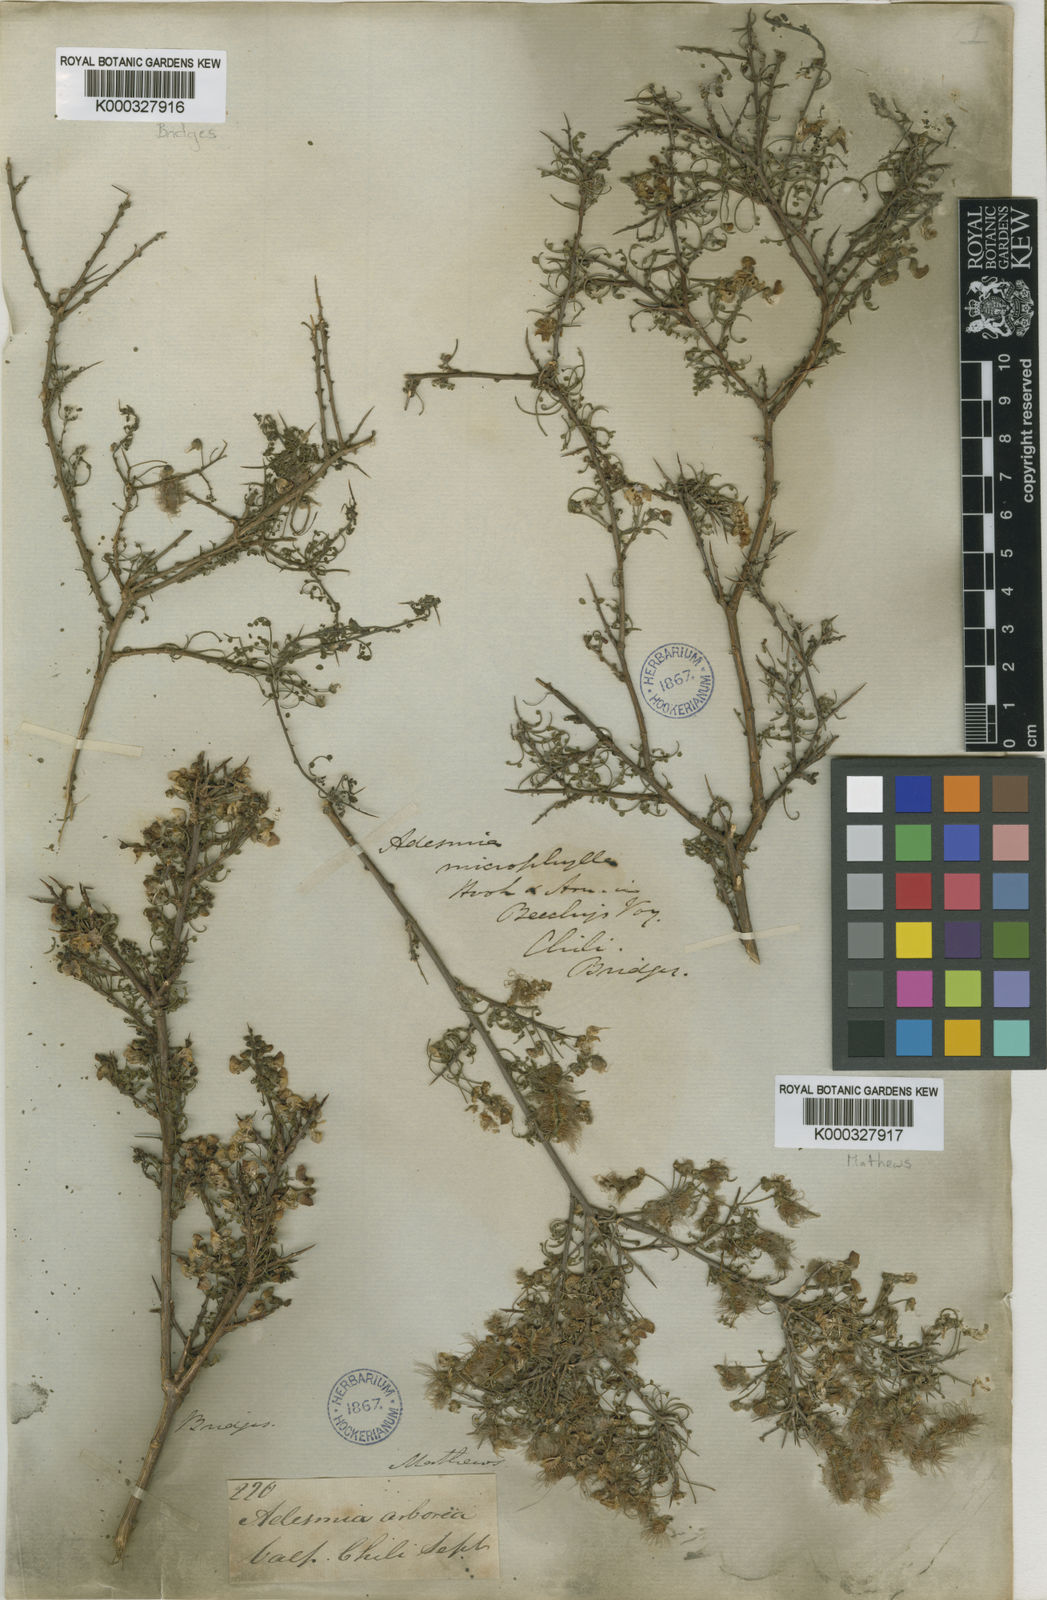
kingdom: Plantae
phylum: Tracheophyta
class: Magnoliopsida
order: Fabales
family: Fabaceae
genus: Adesmia
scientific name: Adesmia microphylla
